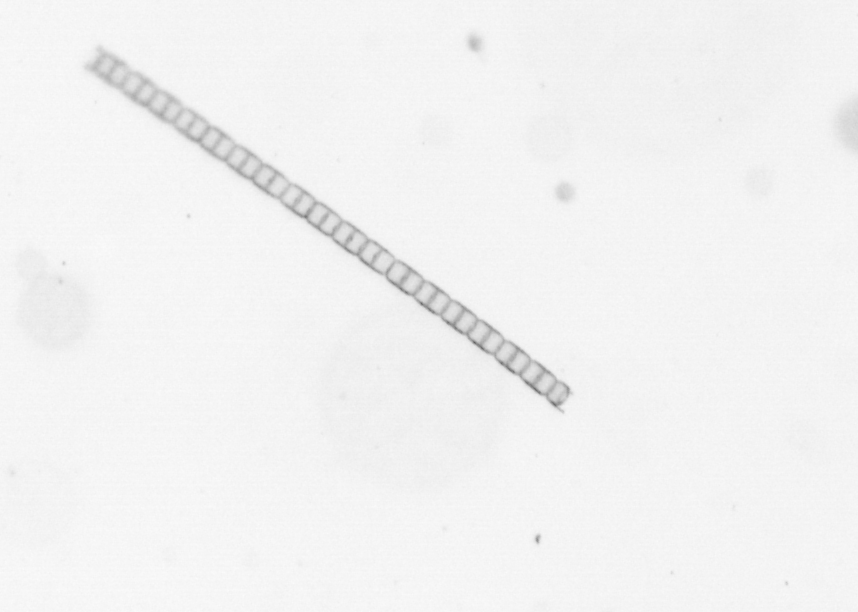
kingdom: Chromista
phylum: Ochrophyta
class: Bacillariophyceae
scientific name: Bacillariophyceae
